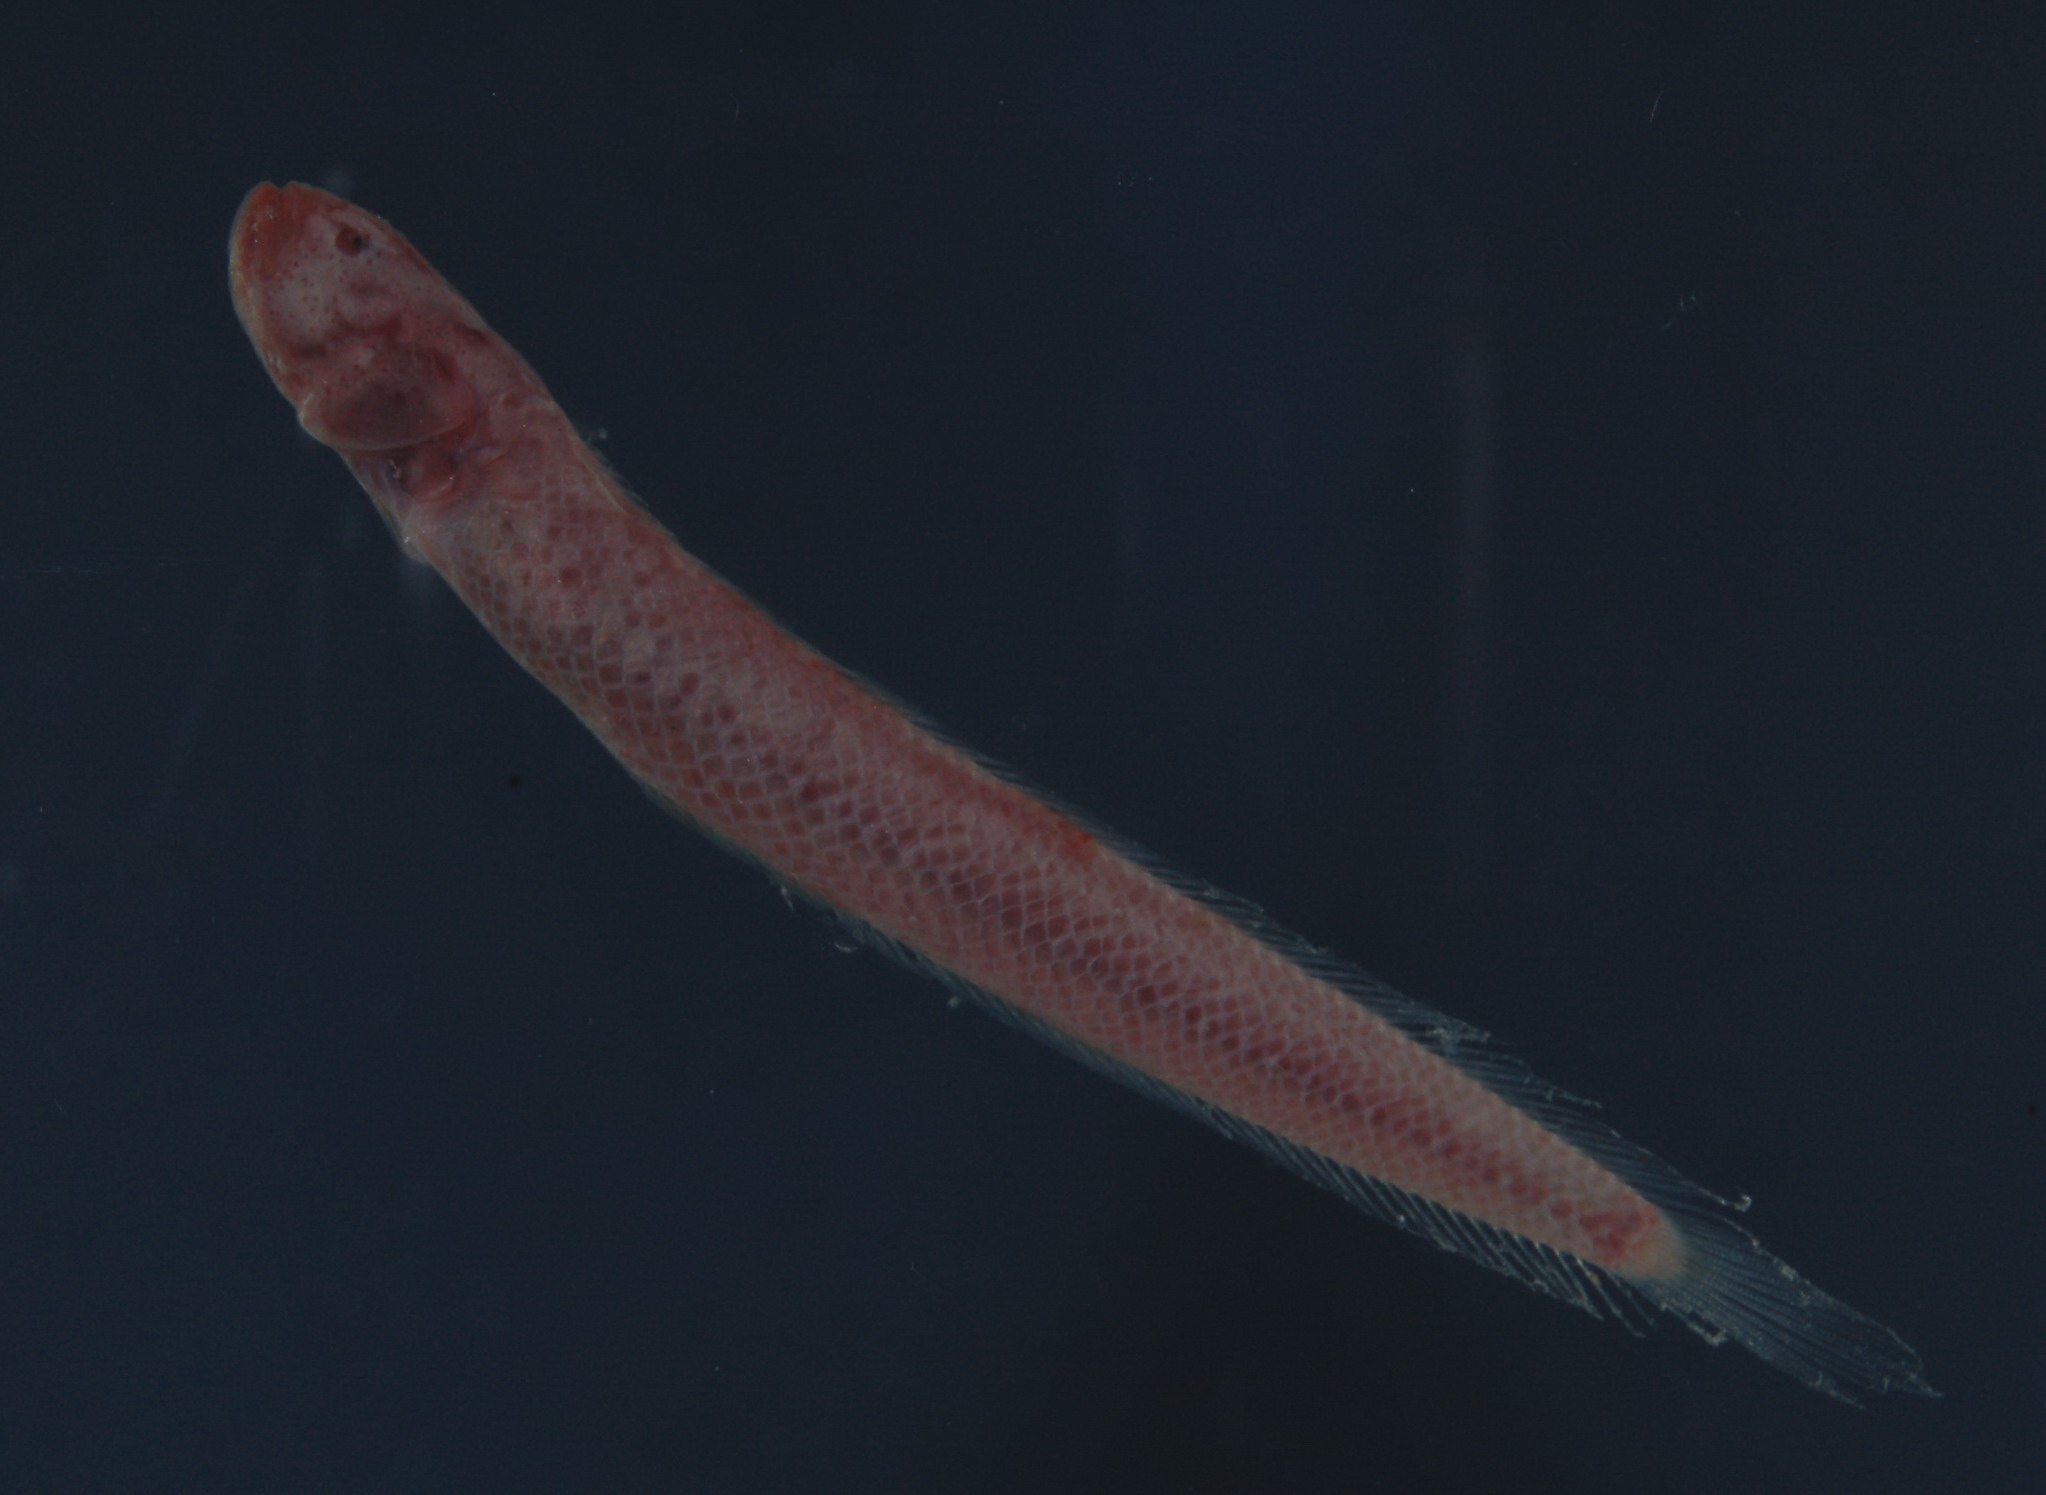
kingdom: Animalia
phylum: Chordata
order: Perciformes
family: Gobiidae
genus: Paratrypauchen
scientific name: Paratrypauchen microcephalus
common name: Comb goby
